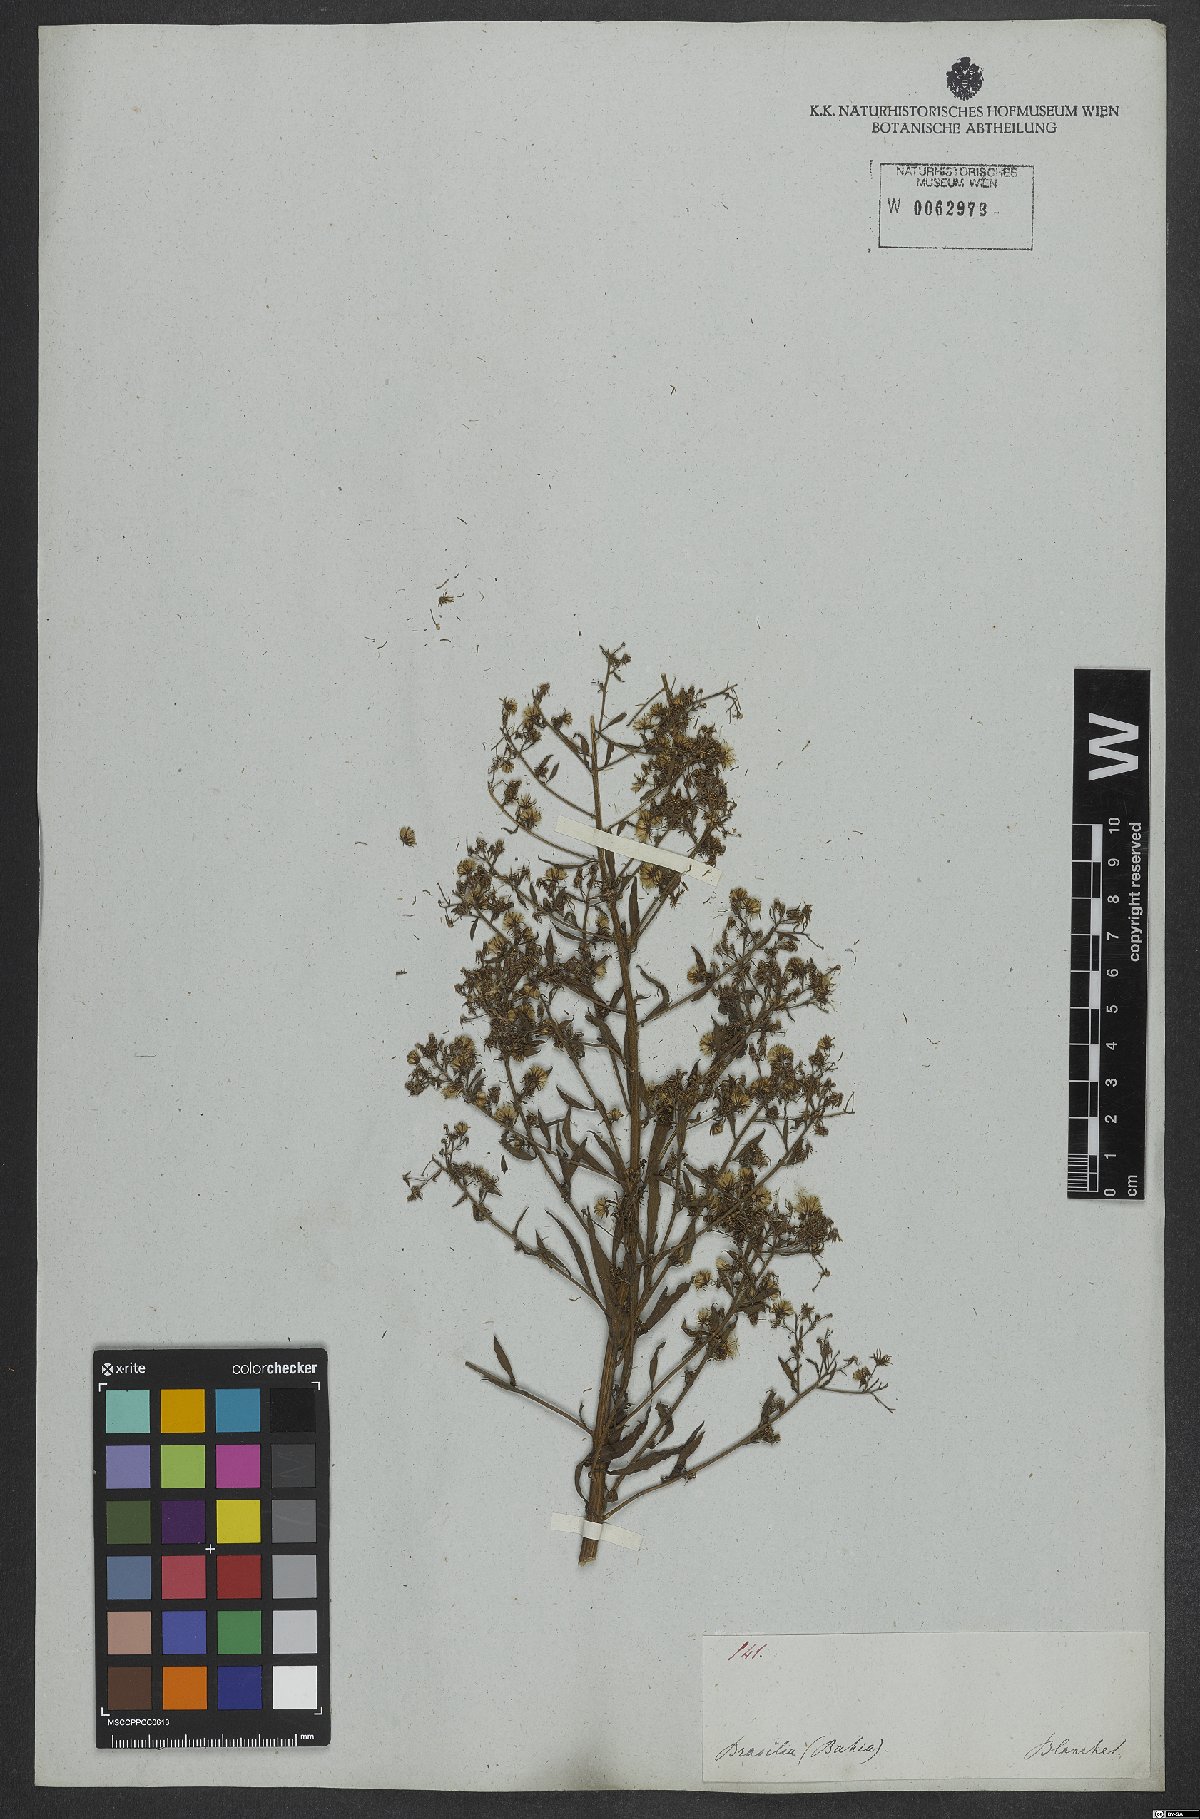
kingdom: Plantae
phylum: Tracheophyta
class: Magnoliopsida
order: Asterales
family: Asteraceae
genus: Erigeron
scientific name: Erigeron canadensis
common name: Canadian fleabane
